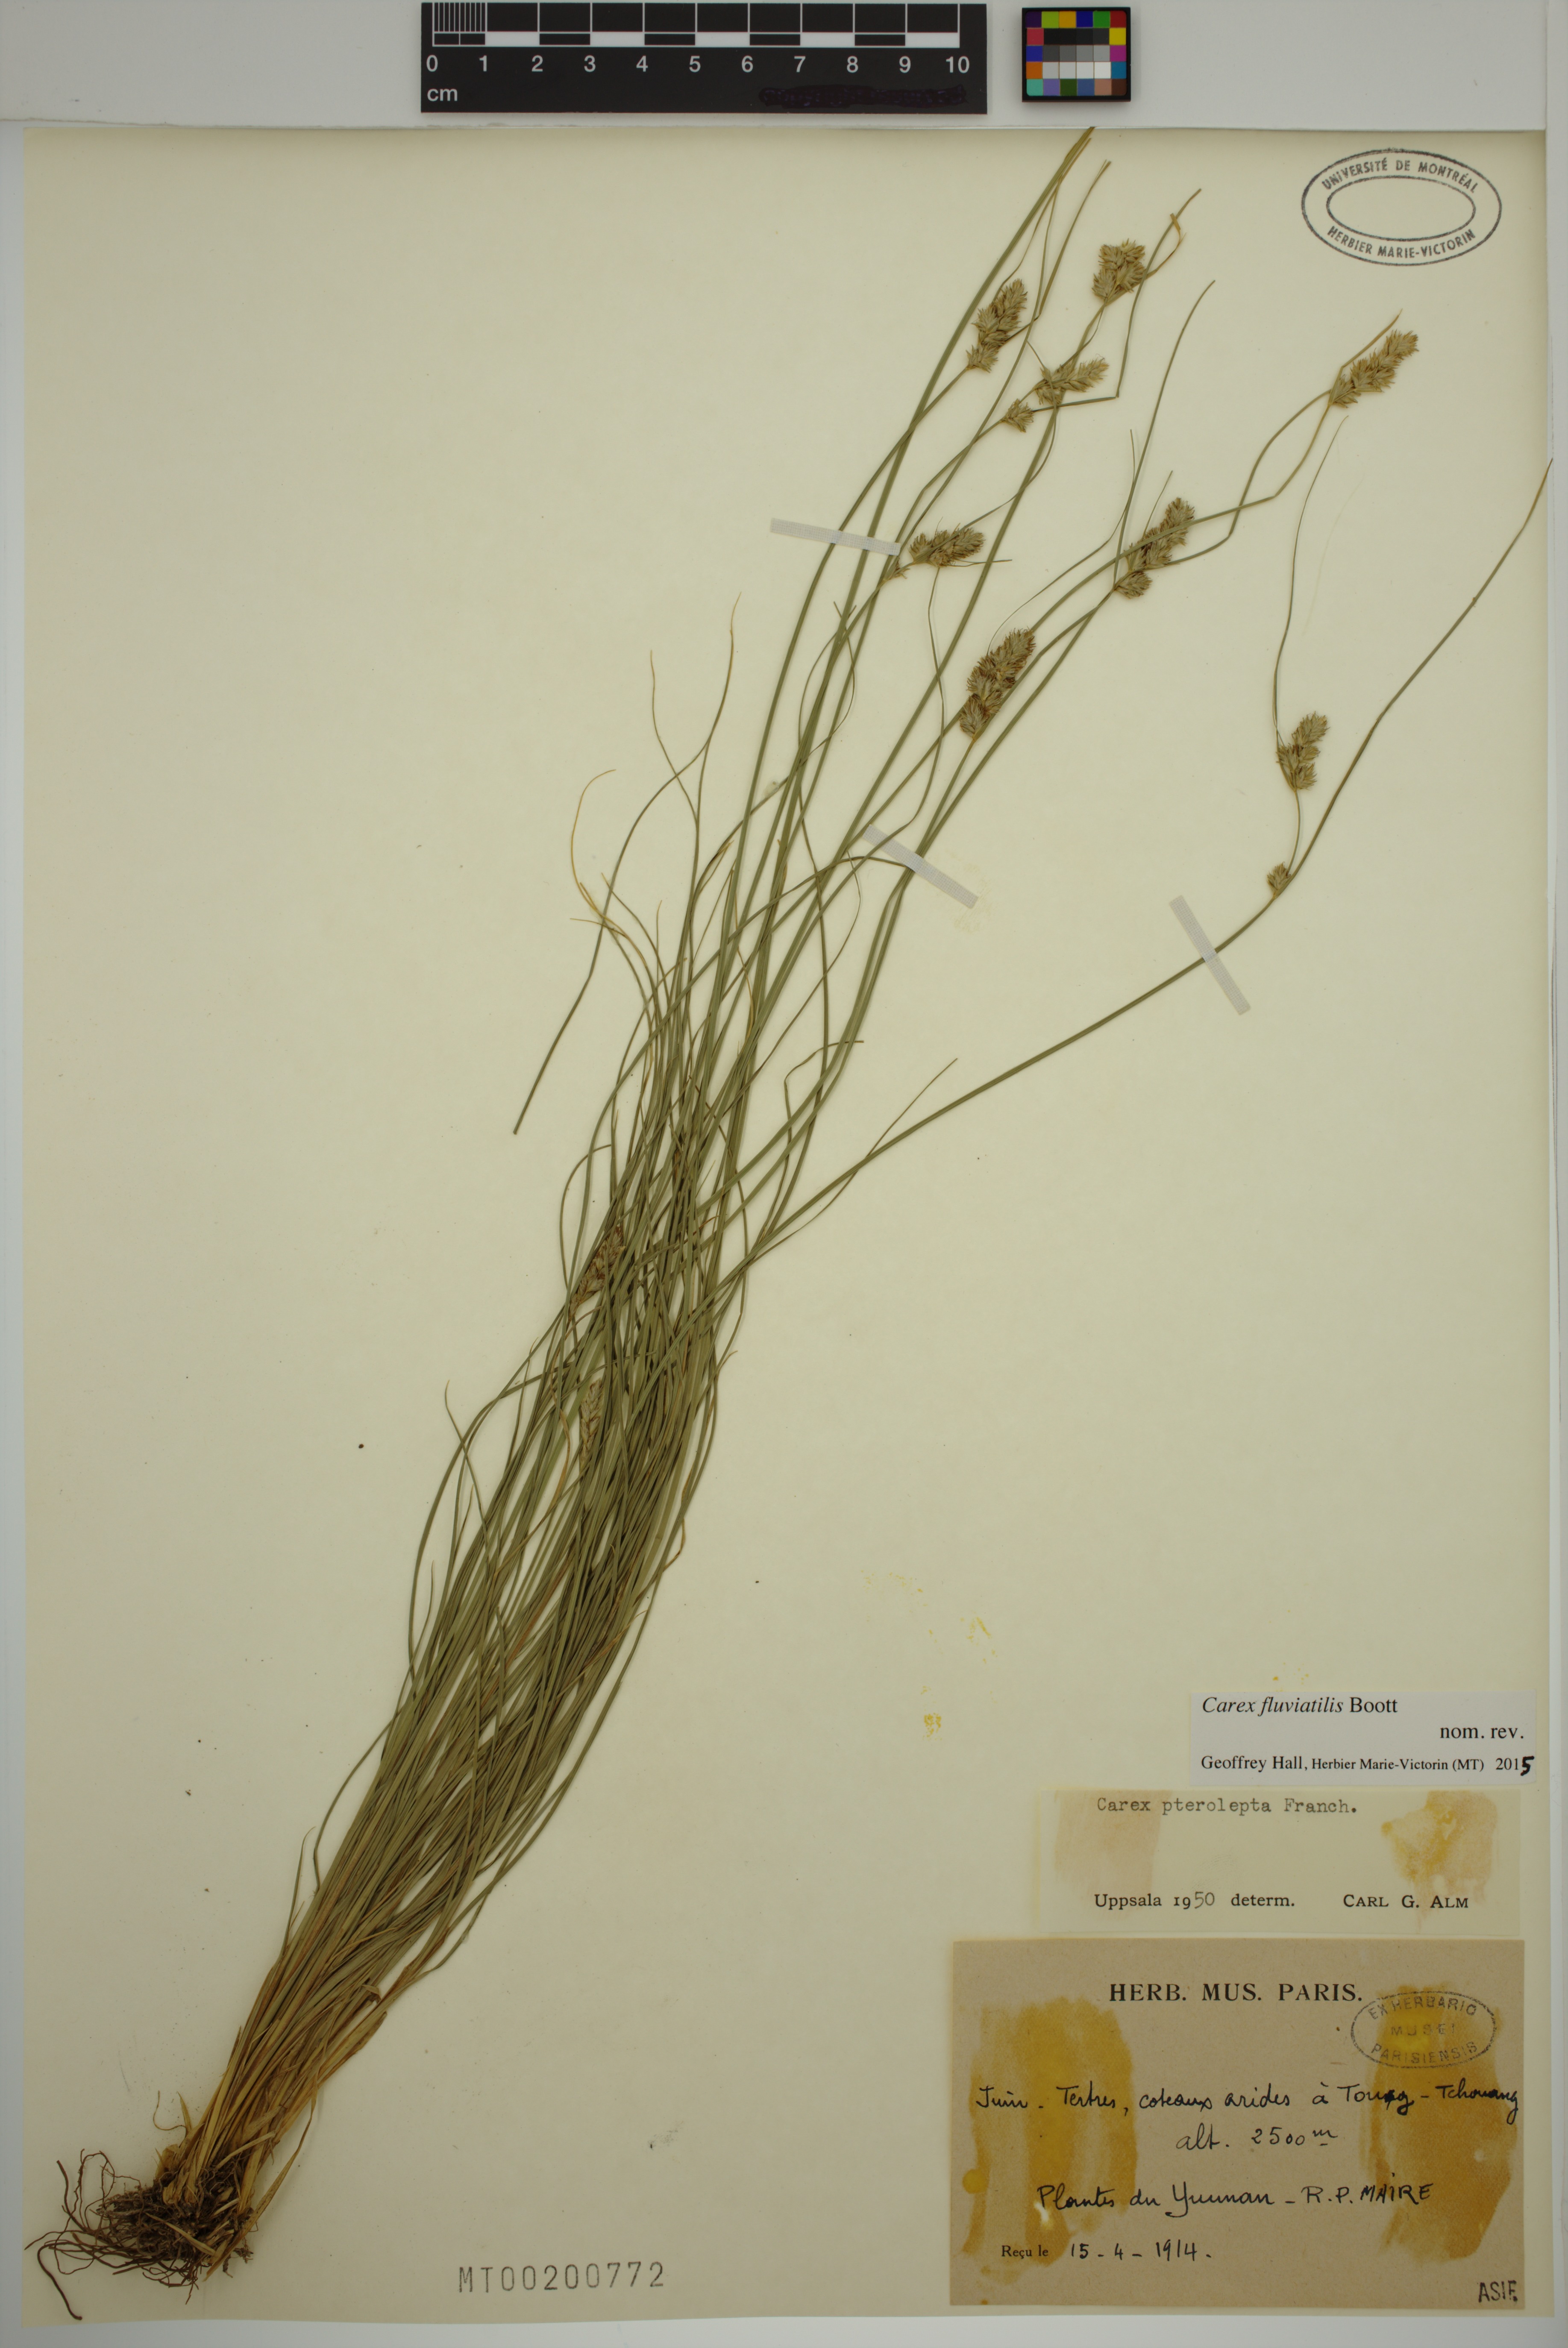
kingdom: Plantae
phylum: Tracheophyta
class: Liliopsida
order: Poales
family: Cyperaceae
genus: Carex
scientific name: Carex fluviatilis
